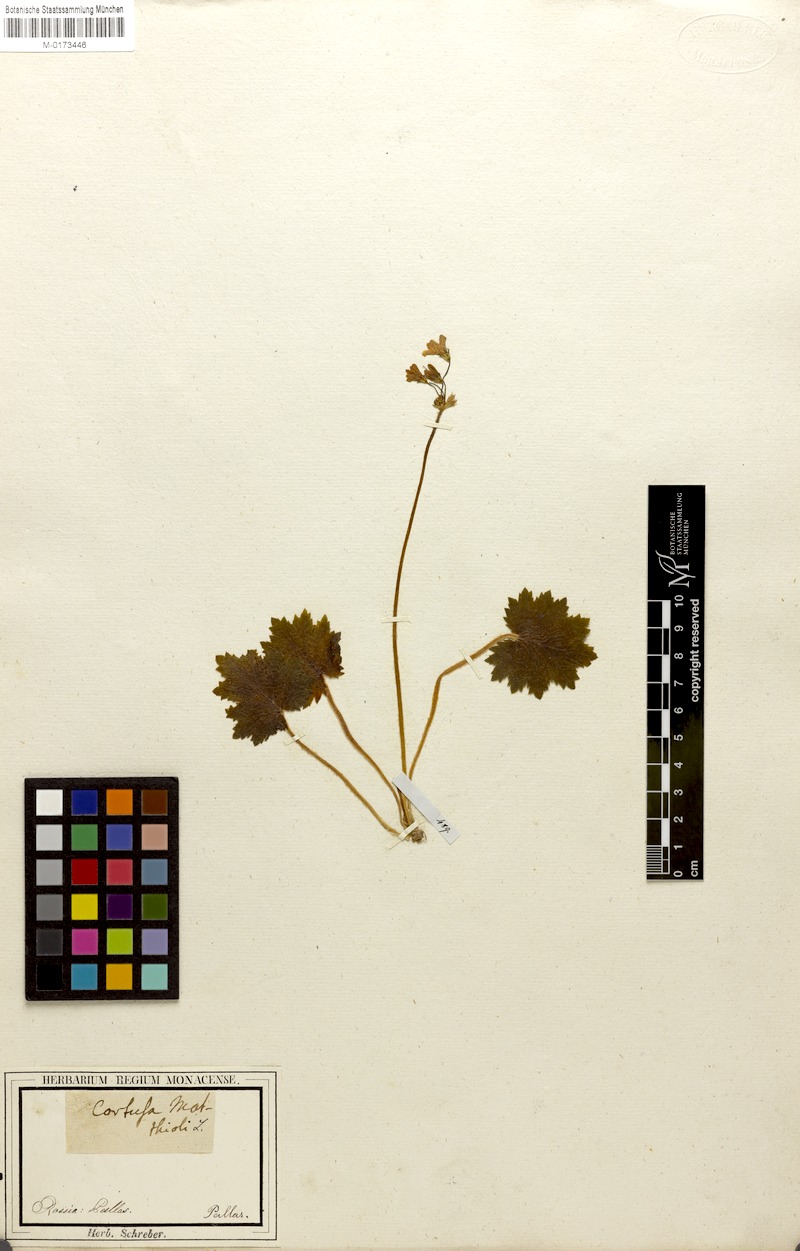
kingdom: Plantae
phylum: Tracheophyta
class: Magnoliopsida
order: Ericales
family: Primulaceae
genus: Primula
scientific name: Primula matthioli
